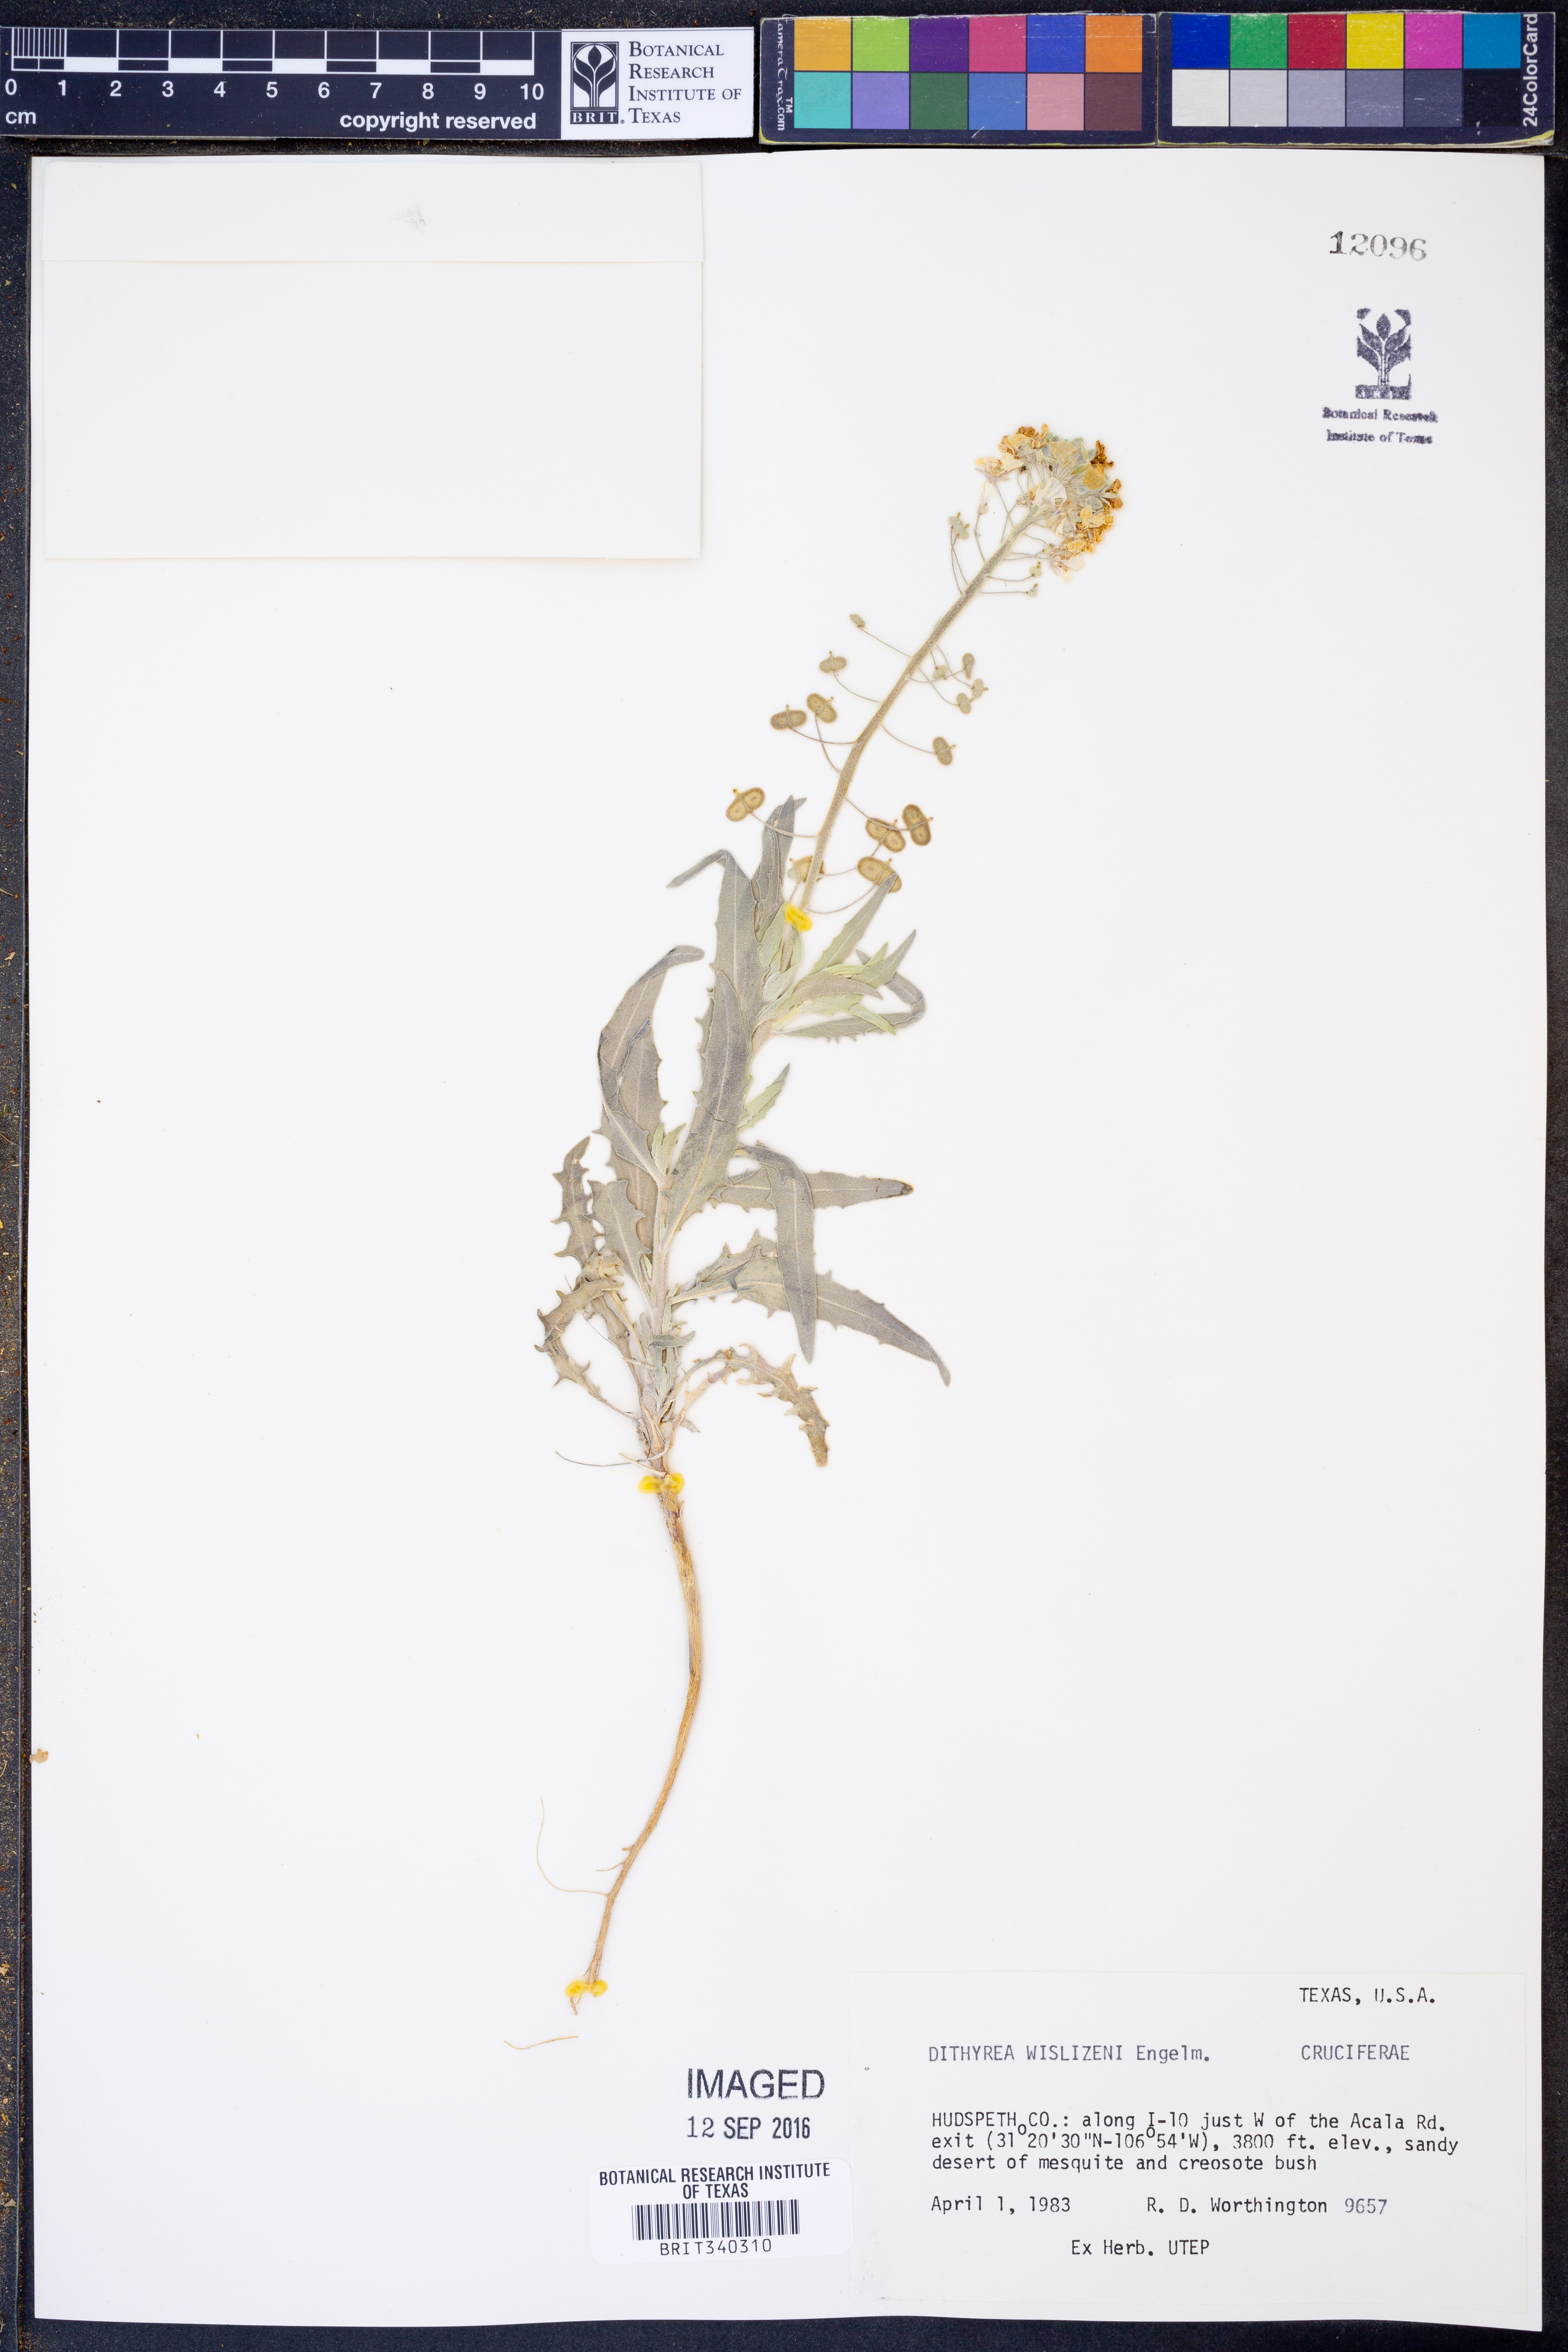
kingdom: Plantae
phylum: Tracheophyta
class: Magnoliopsida
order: Brassicales
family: Brassicaceae
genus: Dimorphocarpa
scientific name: Dimorphocarpa wislizenii
